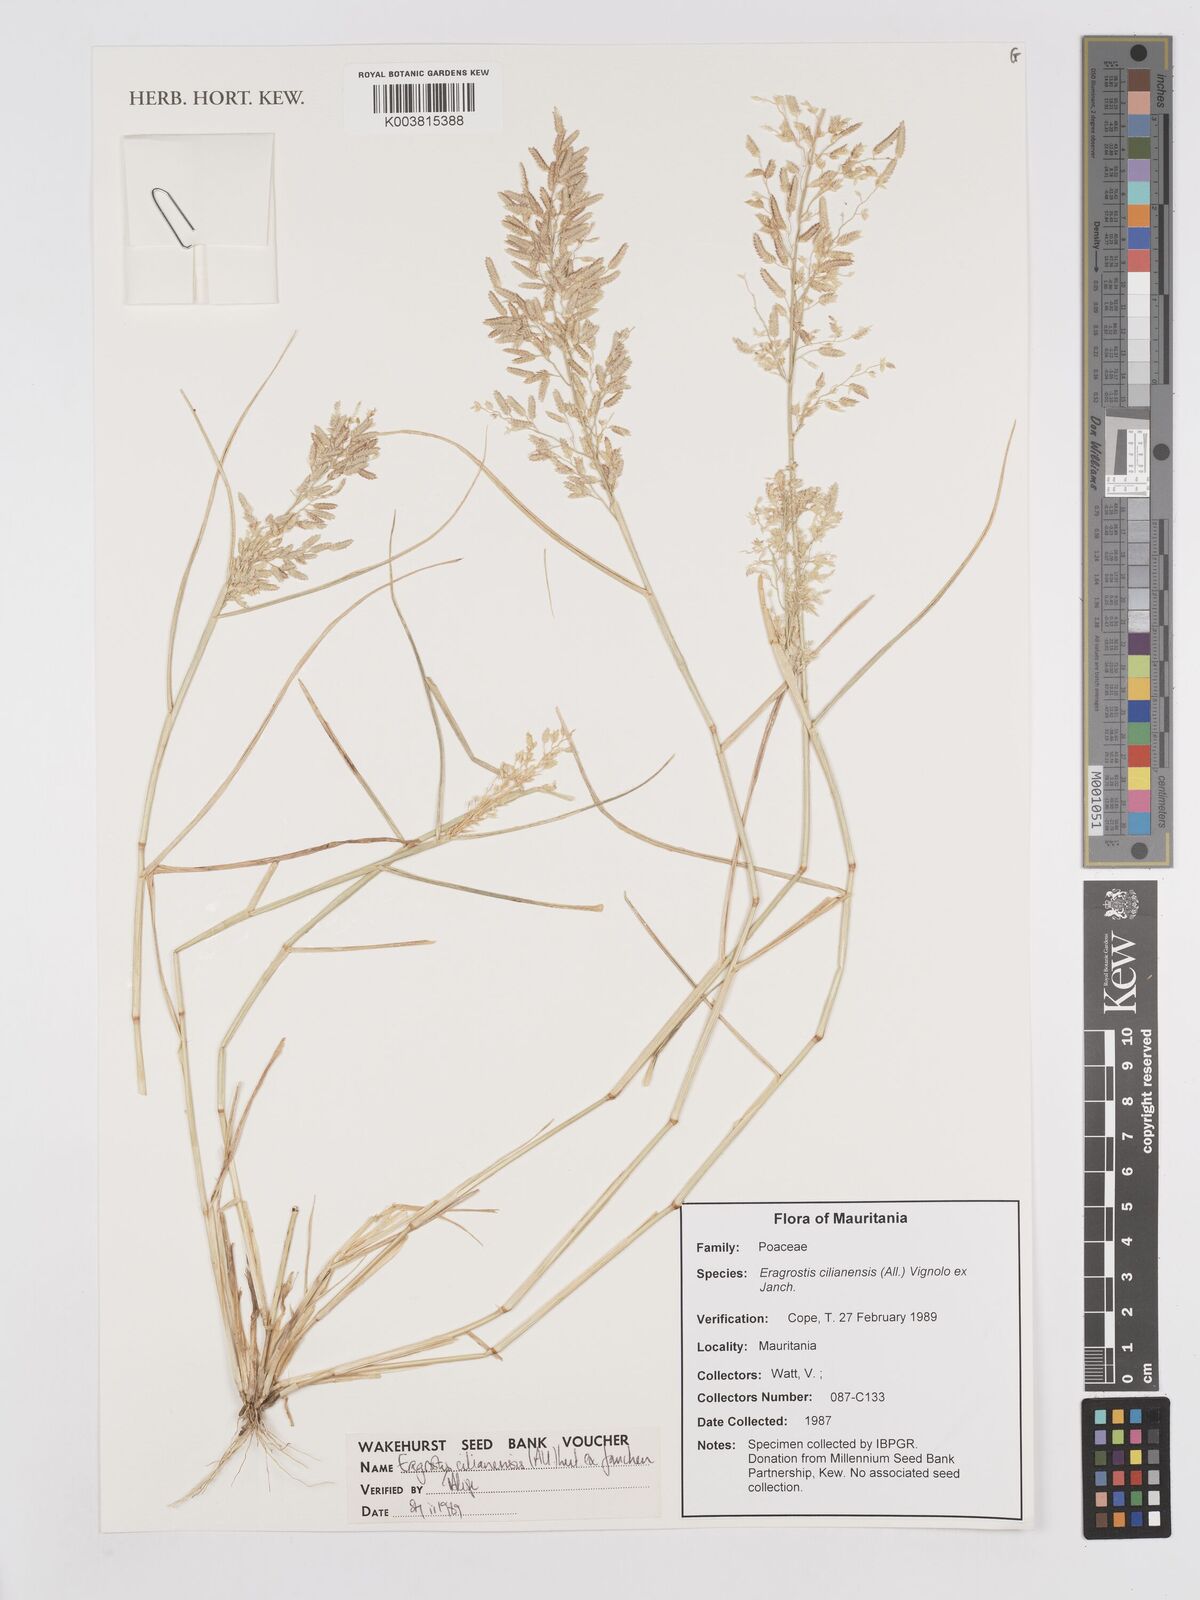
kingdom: Plantae
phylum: Tracheophyta
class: Liliopsida
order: Poales
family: Poaceae
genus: Eragrostis
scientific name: Eragrostis cilianensis
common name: Stinkgrass
